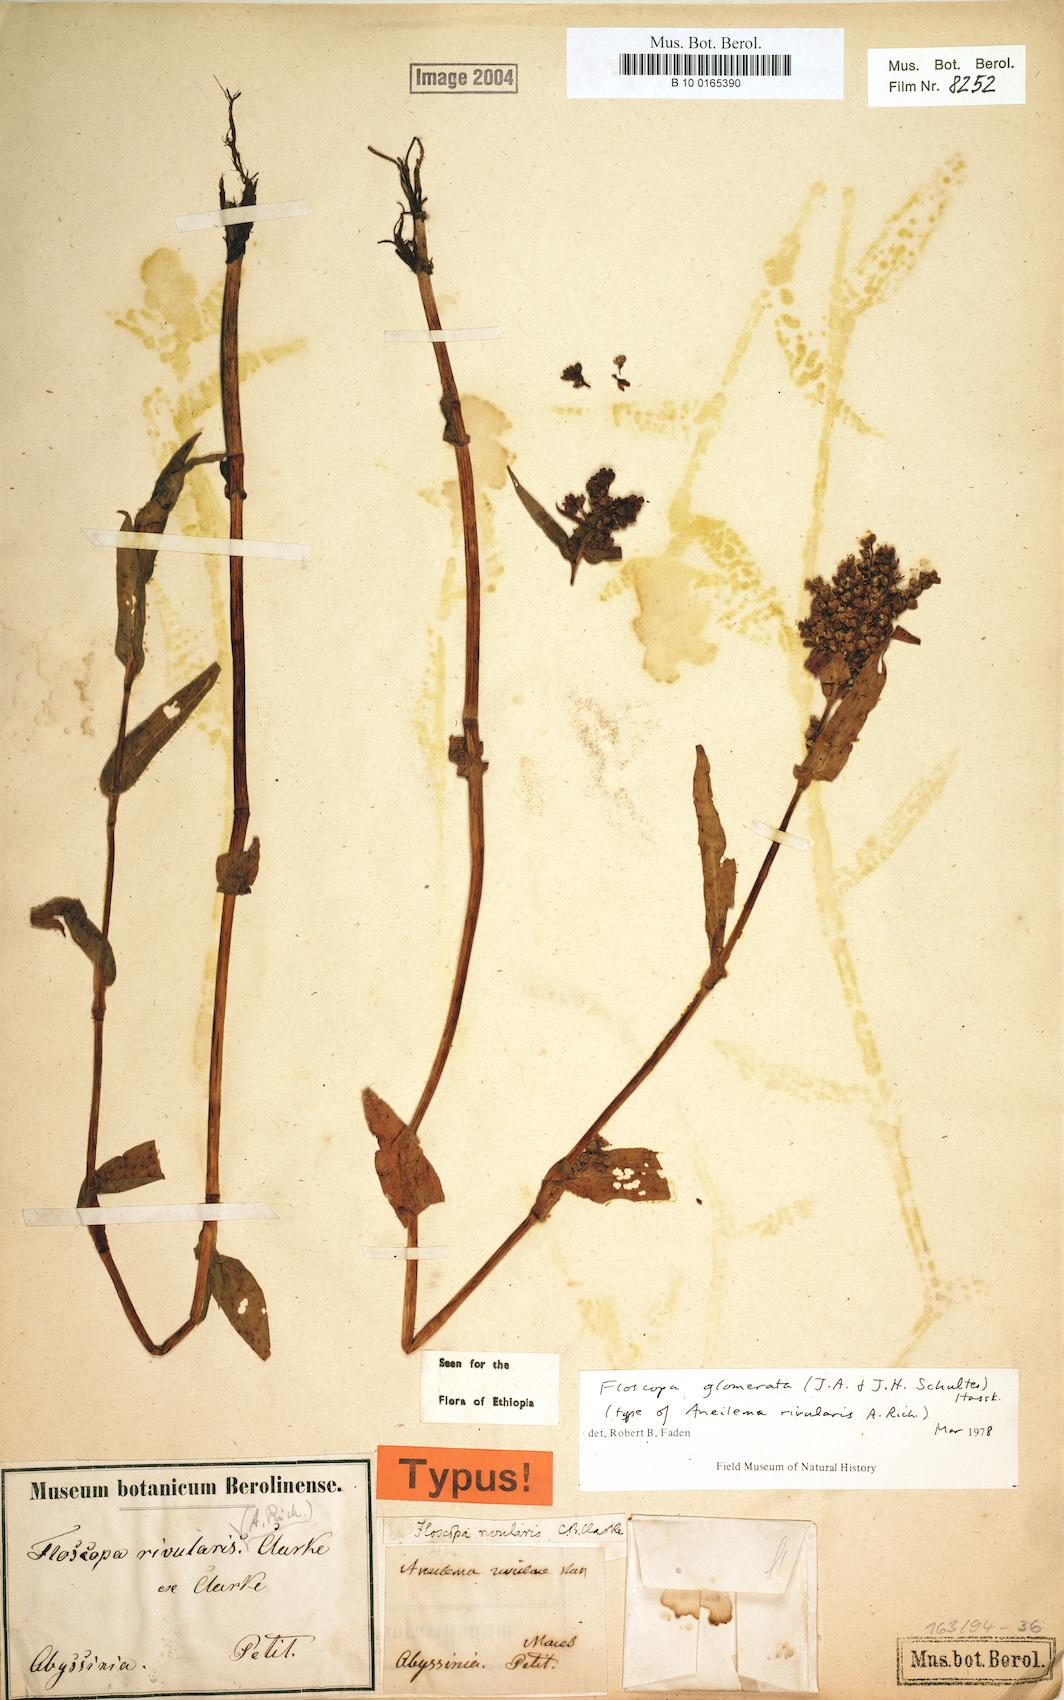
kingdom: Plantae
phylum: Tracheophyta
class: Liliopsida
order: Commelinales
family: Commelinaceae
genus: Floscopa
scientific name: Floscopa glomerata
